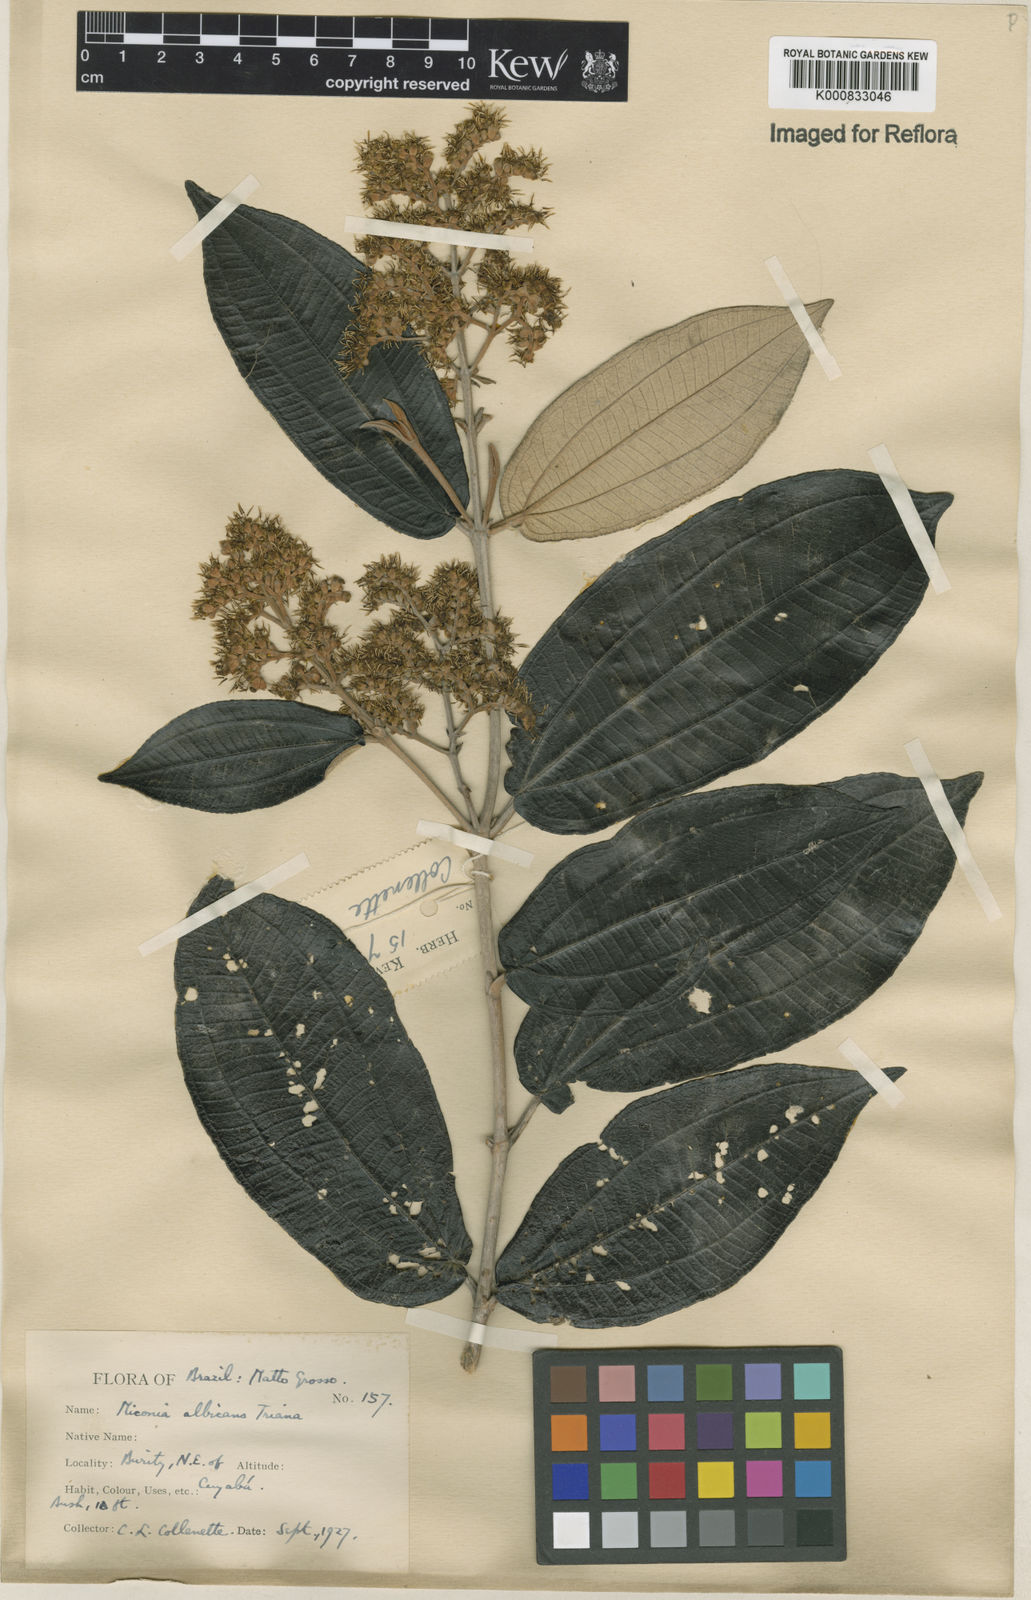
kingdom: Plantae
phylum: Tracheophyta
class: Magnoliopsida
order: Myrtales
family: Melastomataceae
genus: Miconia
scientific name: Miconia albicans
